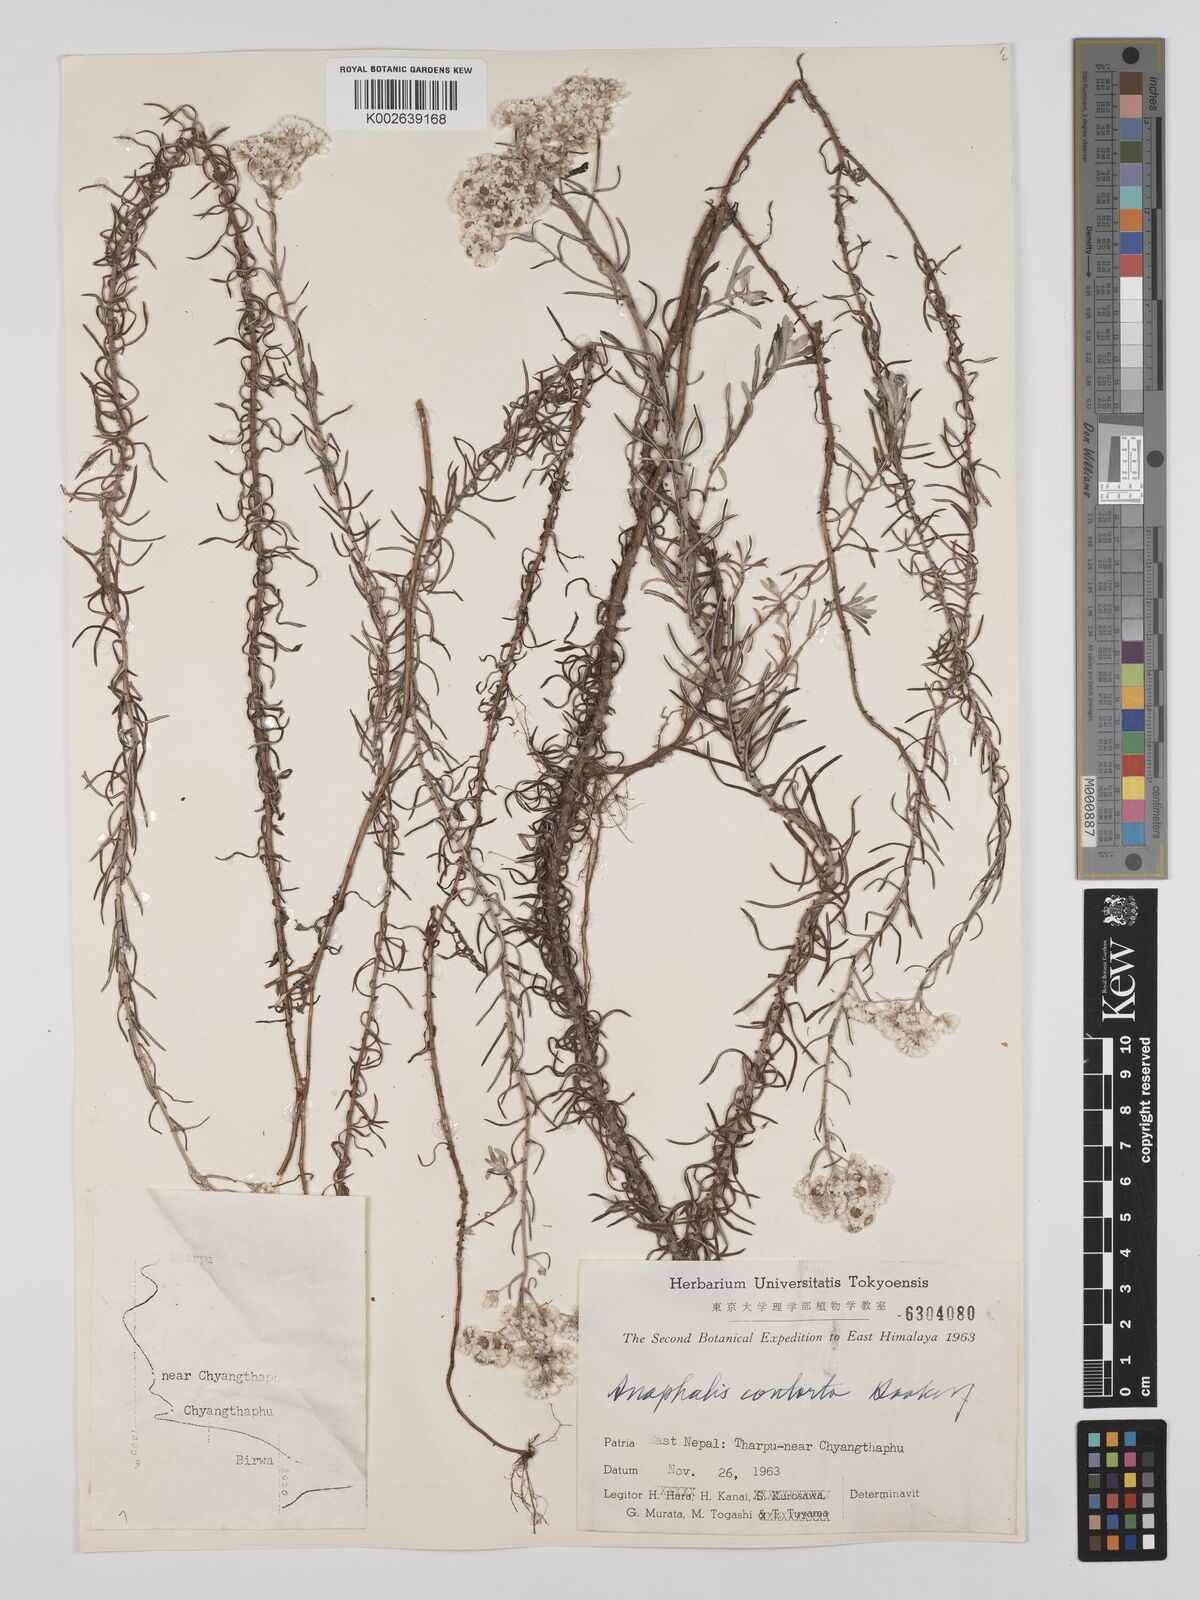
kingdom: Plantae
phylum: Tracheophyta
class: Magnoliopsida
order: Asterales
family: Asteraceae
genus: Anaphalis
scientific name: Anaphalis contorta
